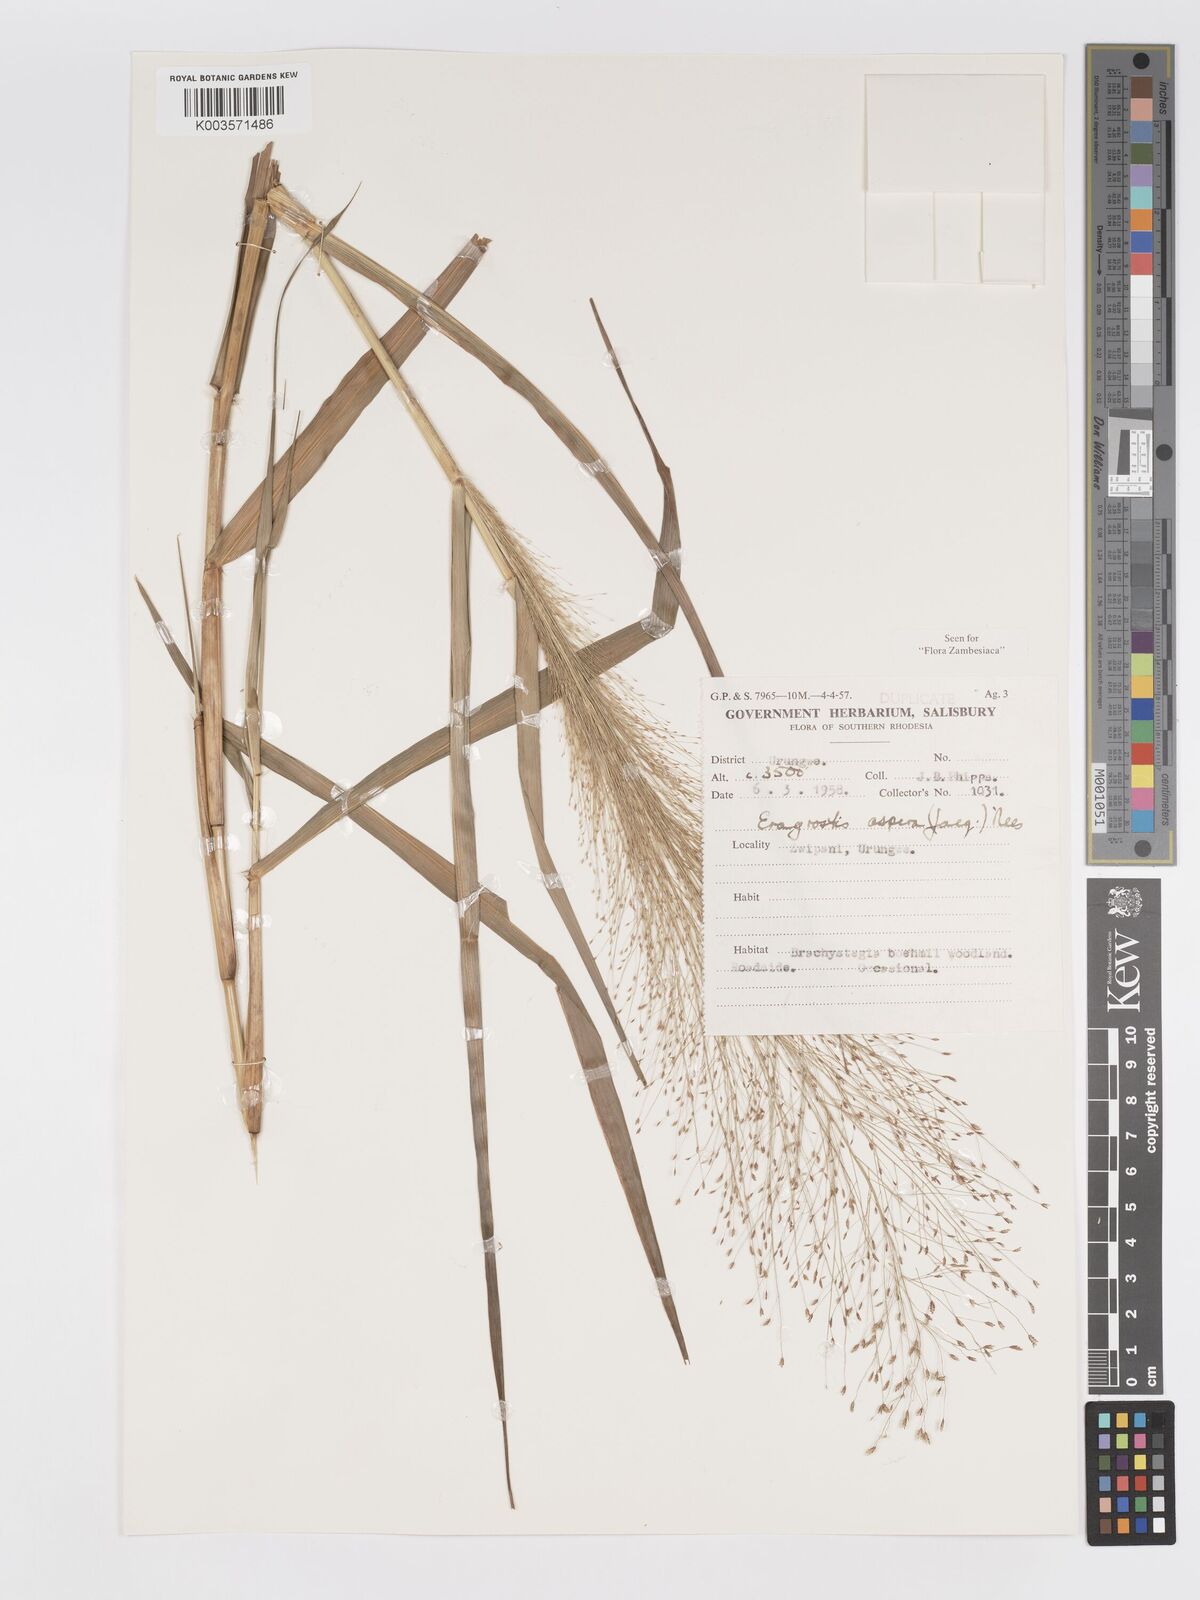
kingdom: Plantae
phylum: Tracheophyta
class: Liliopsida
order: Poales
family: Poaceae
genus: Eragrostis
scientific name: Eragrostis aspera
